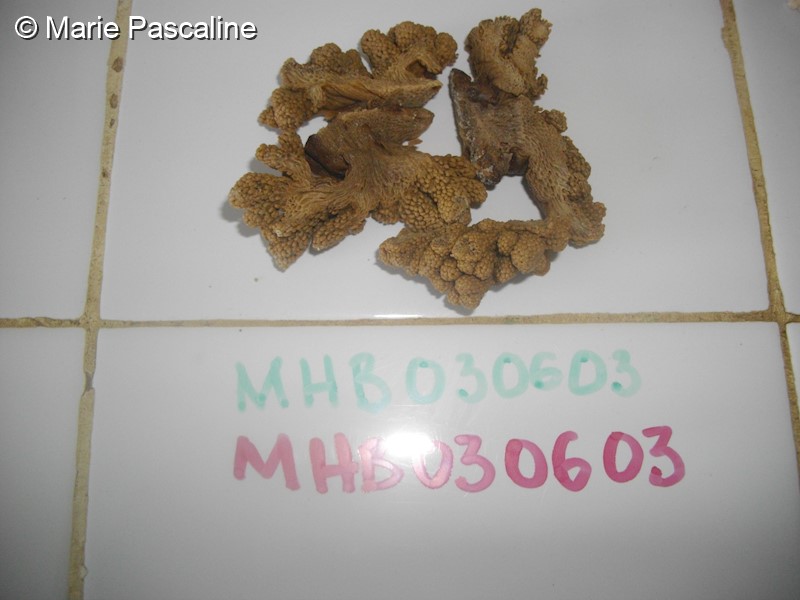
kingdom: Animalia
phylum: Cnidaria
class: Anthozoa
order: Malacalcyonacea
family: Capnellidae
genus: Capnella
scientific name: Capnella fungiformis
